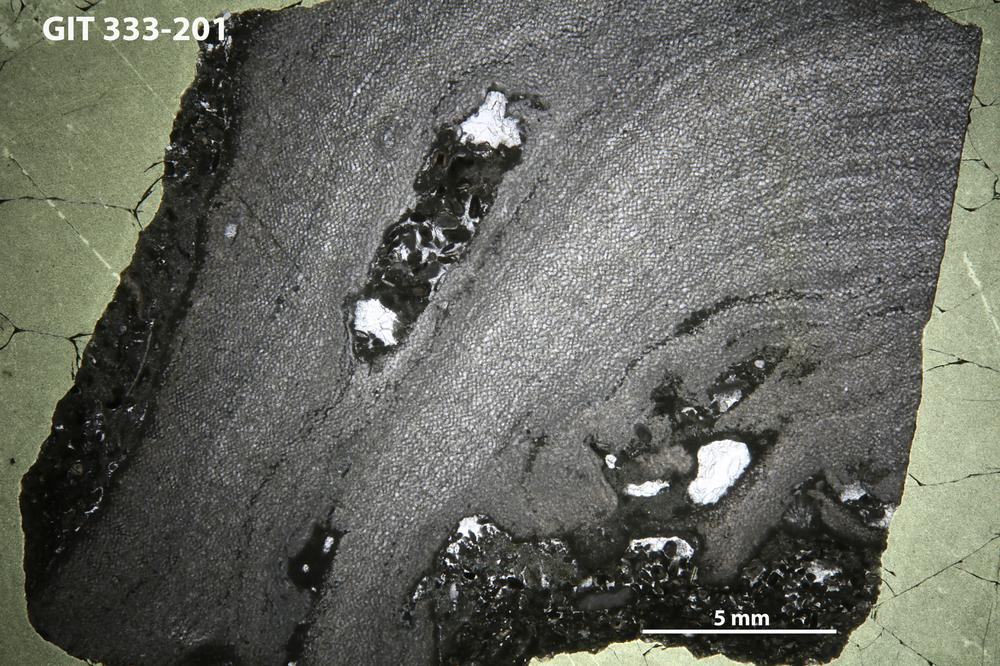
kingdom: Animalia
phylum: Porifera
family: Ecclimadictyidae
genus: Ecclimadictyon
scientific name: Ecclimadictyon macrotuberculatum
